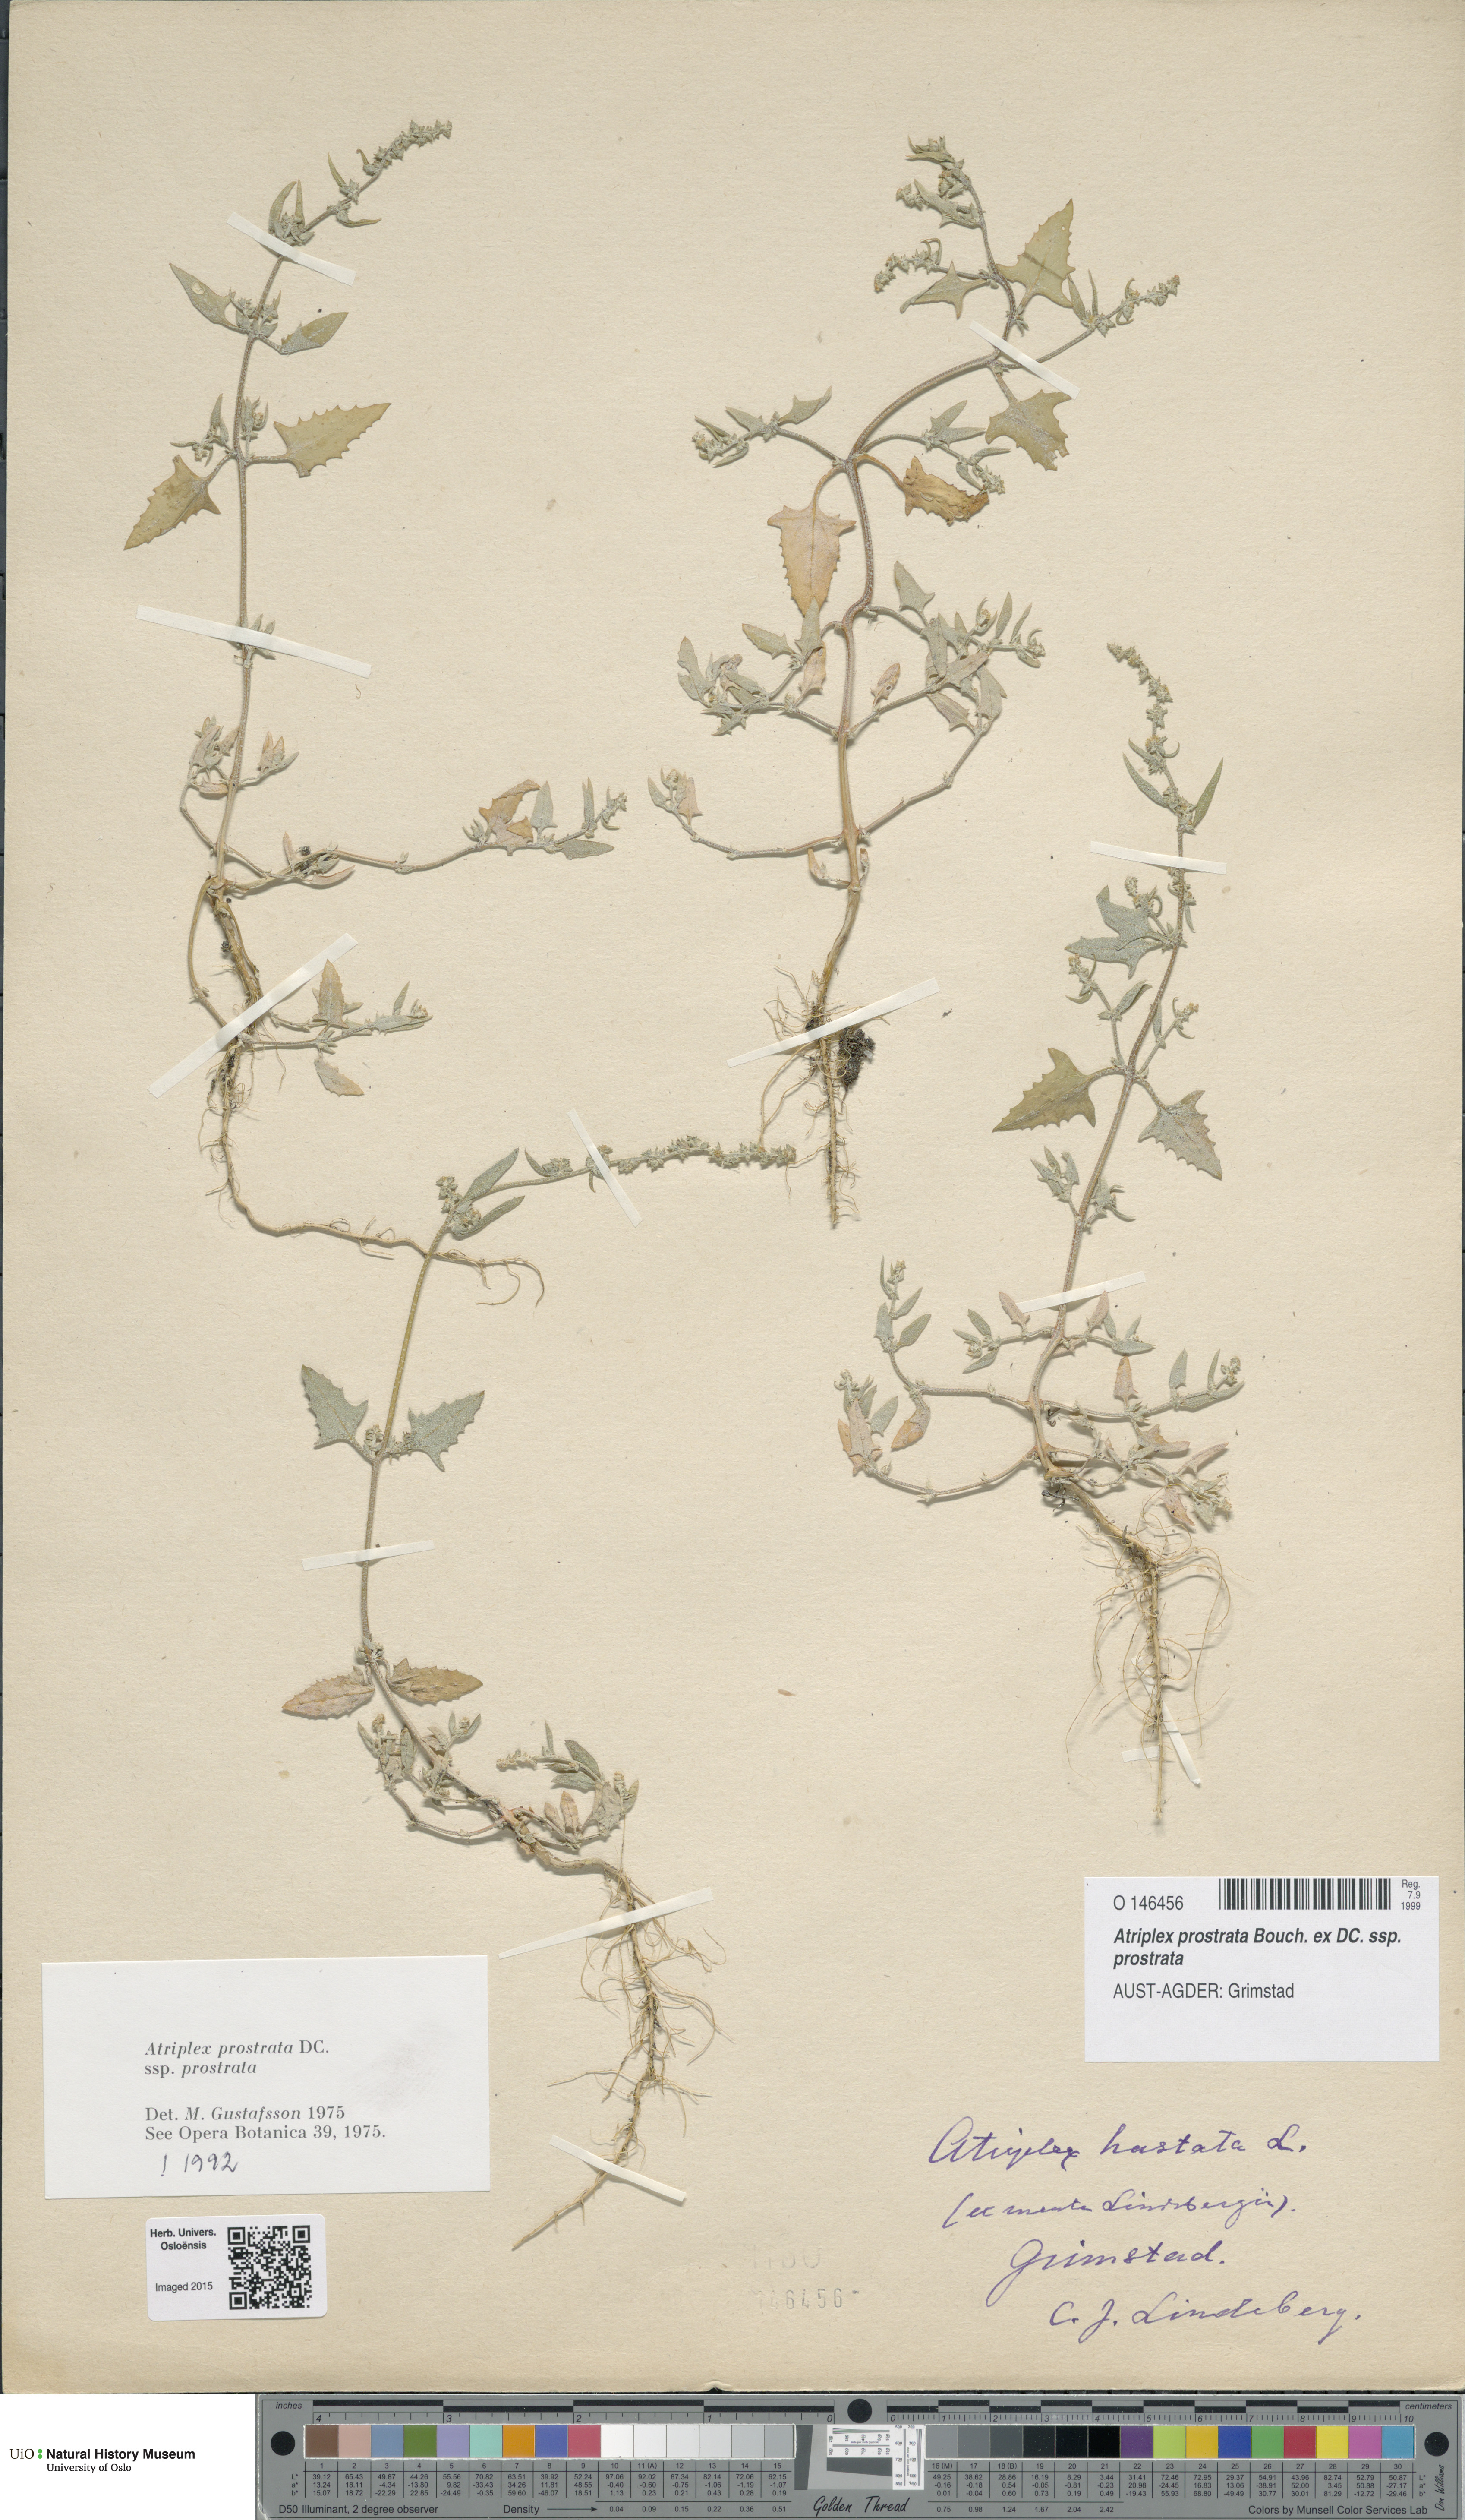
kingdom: Plantae
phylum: Tracheophyta
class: Magnoliopsida
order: Caryophyllales
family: Amaranthaceae
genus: Atriplex
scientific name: Atriplex prostrata
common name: Spear-leaved orache
